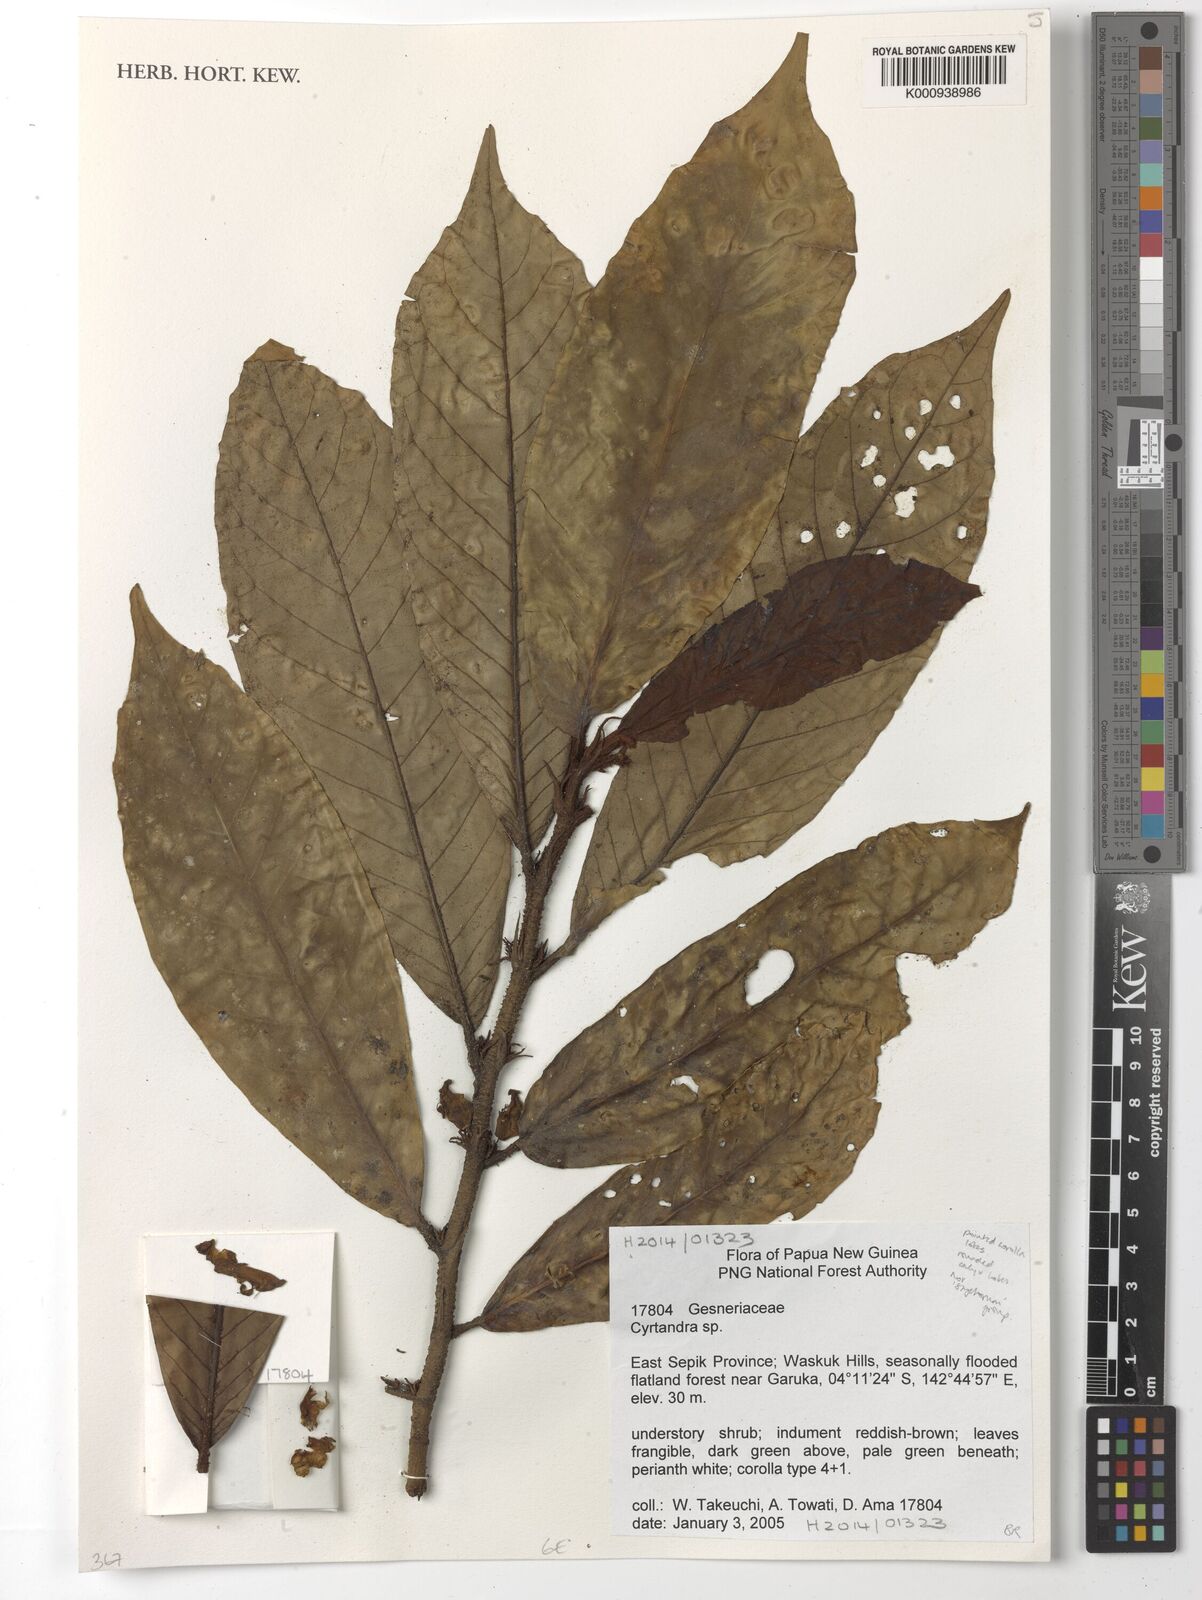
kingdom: Plantae
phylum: Tracheophyta
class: Magnoliopsida
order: Lamiales
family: Gesneriaceae
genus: Cyrtandra
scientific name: Cyrtandra
